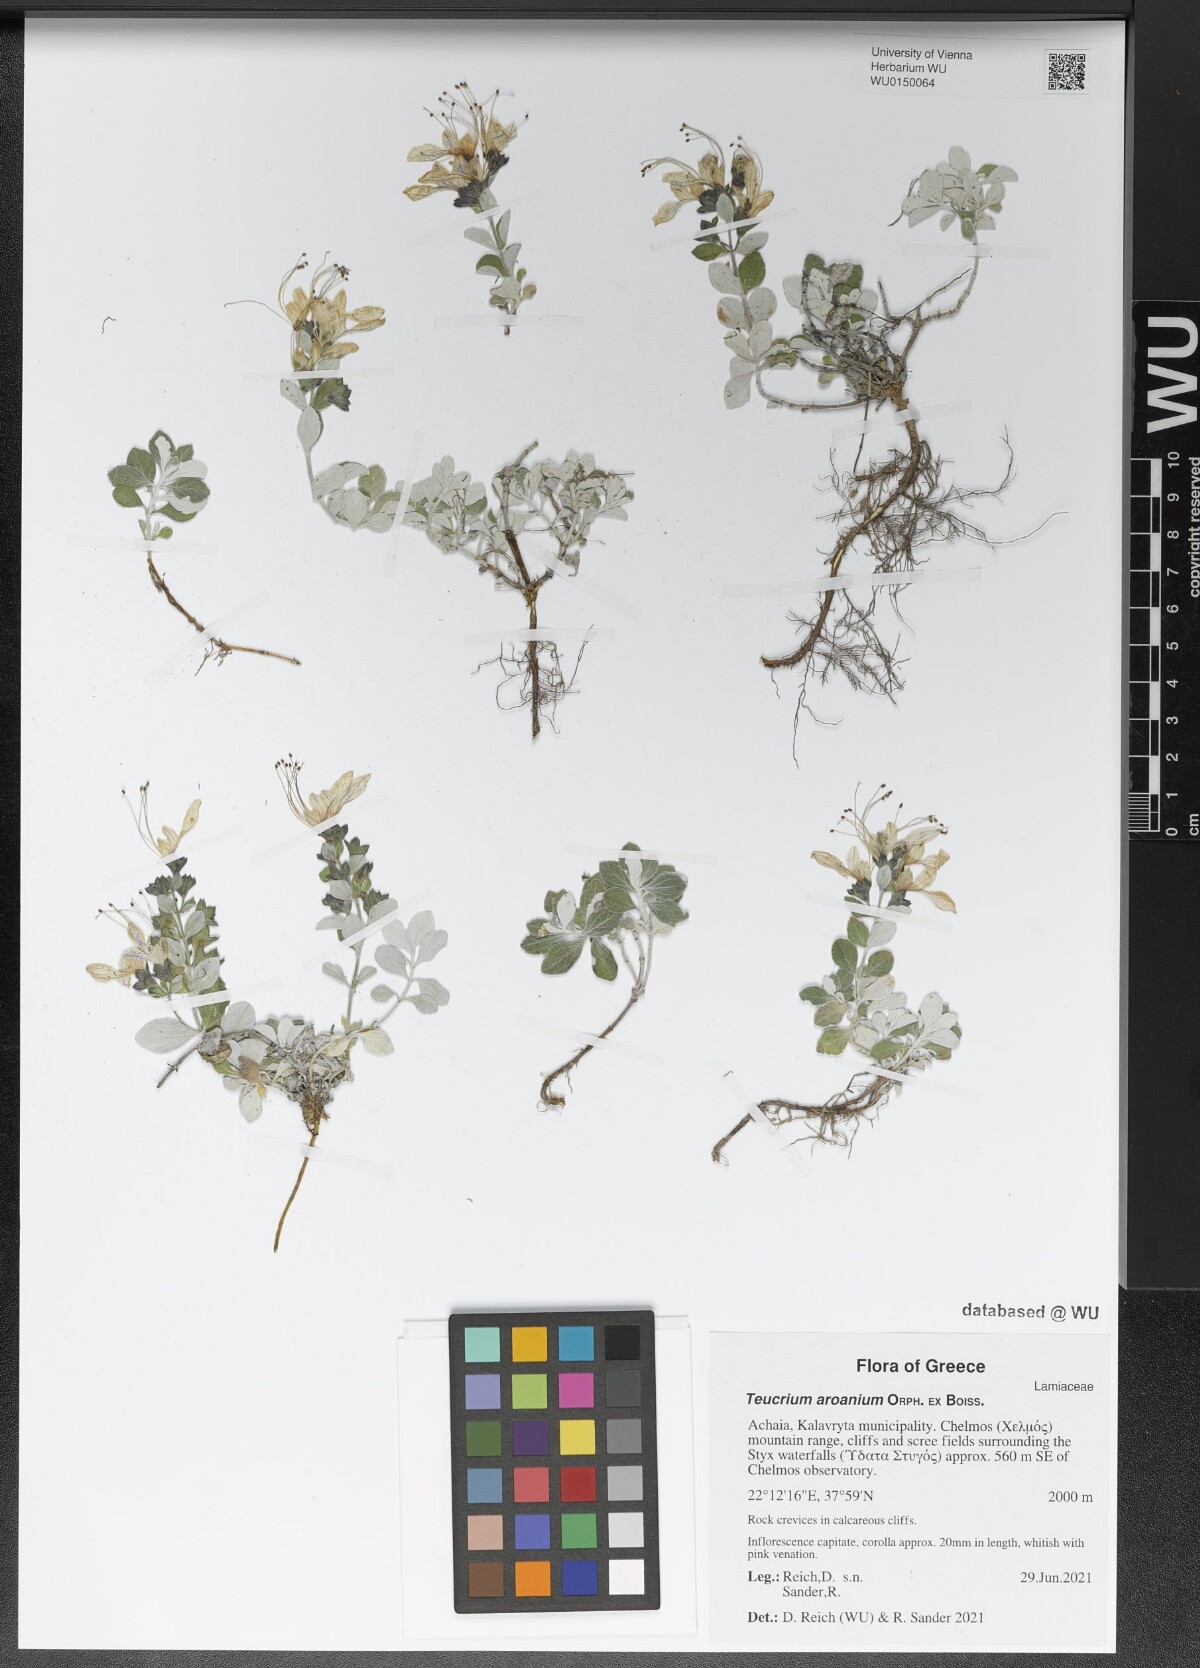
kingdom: Plantae
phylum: Tracheophyta
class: Magnoliopsida
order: Lamiales
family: Lamiaceae
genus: Teucrium
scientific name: Teucrium aroanium
